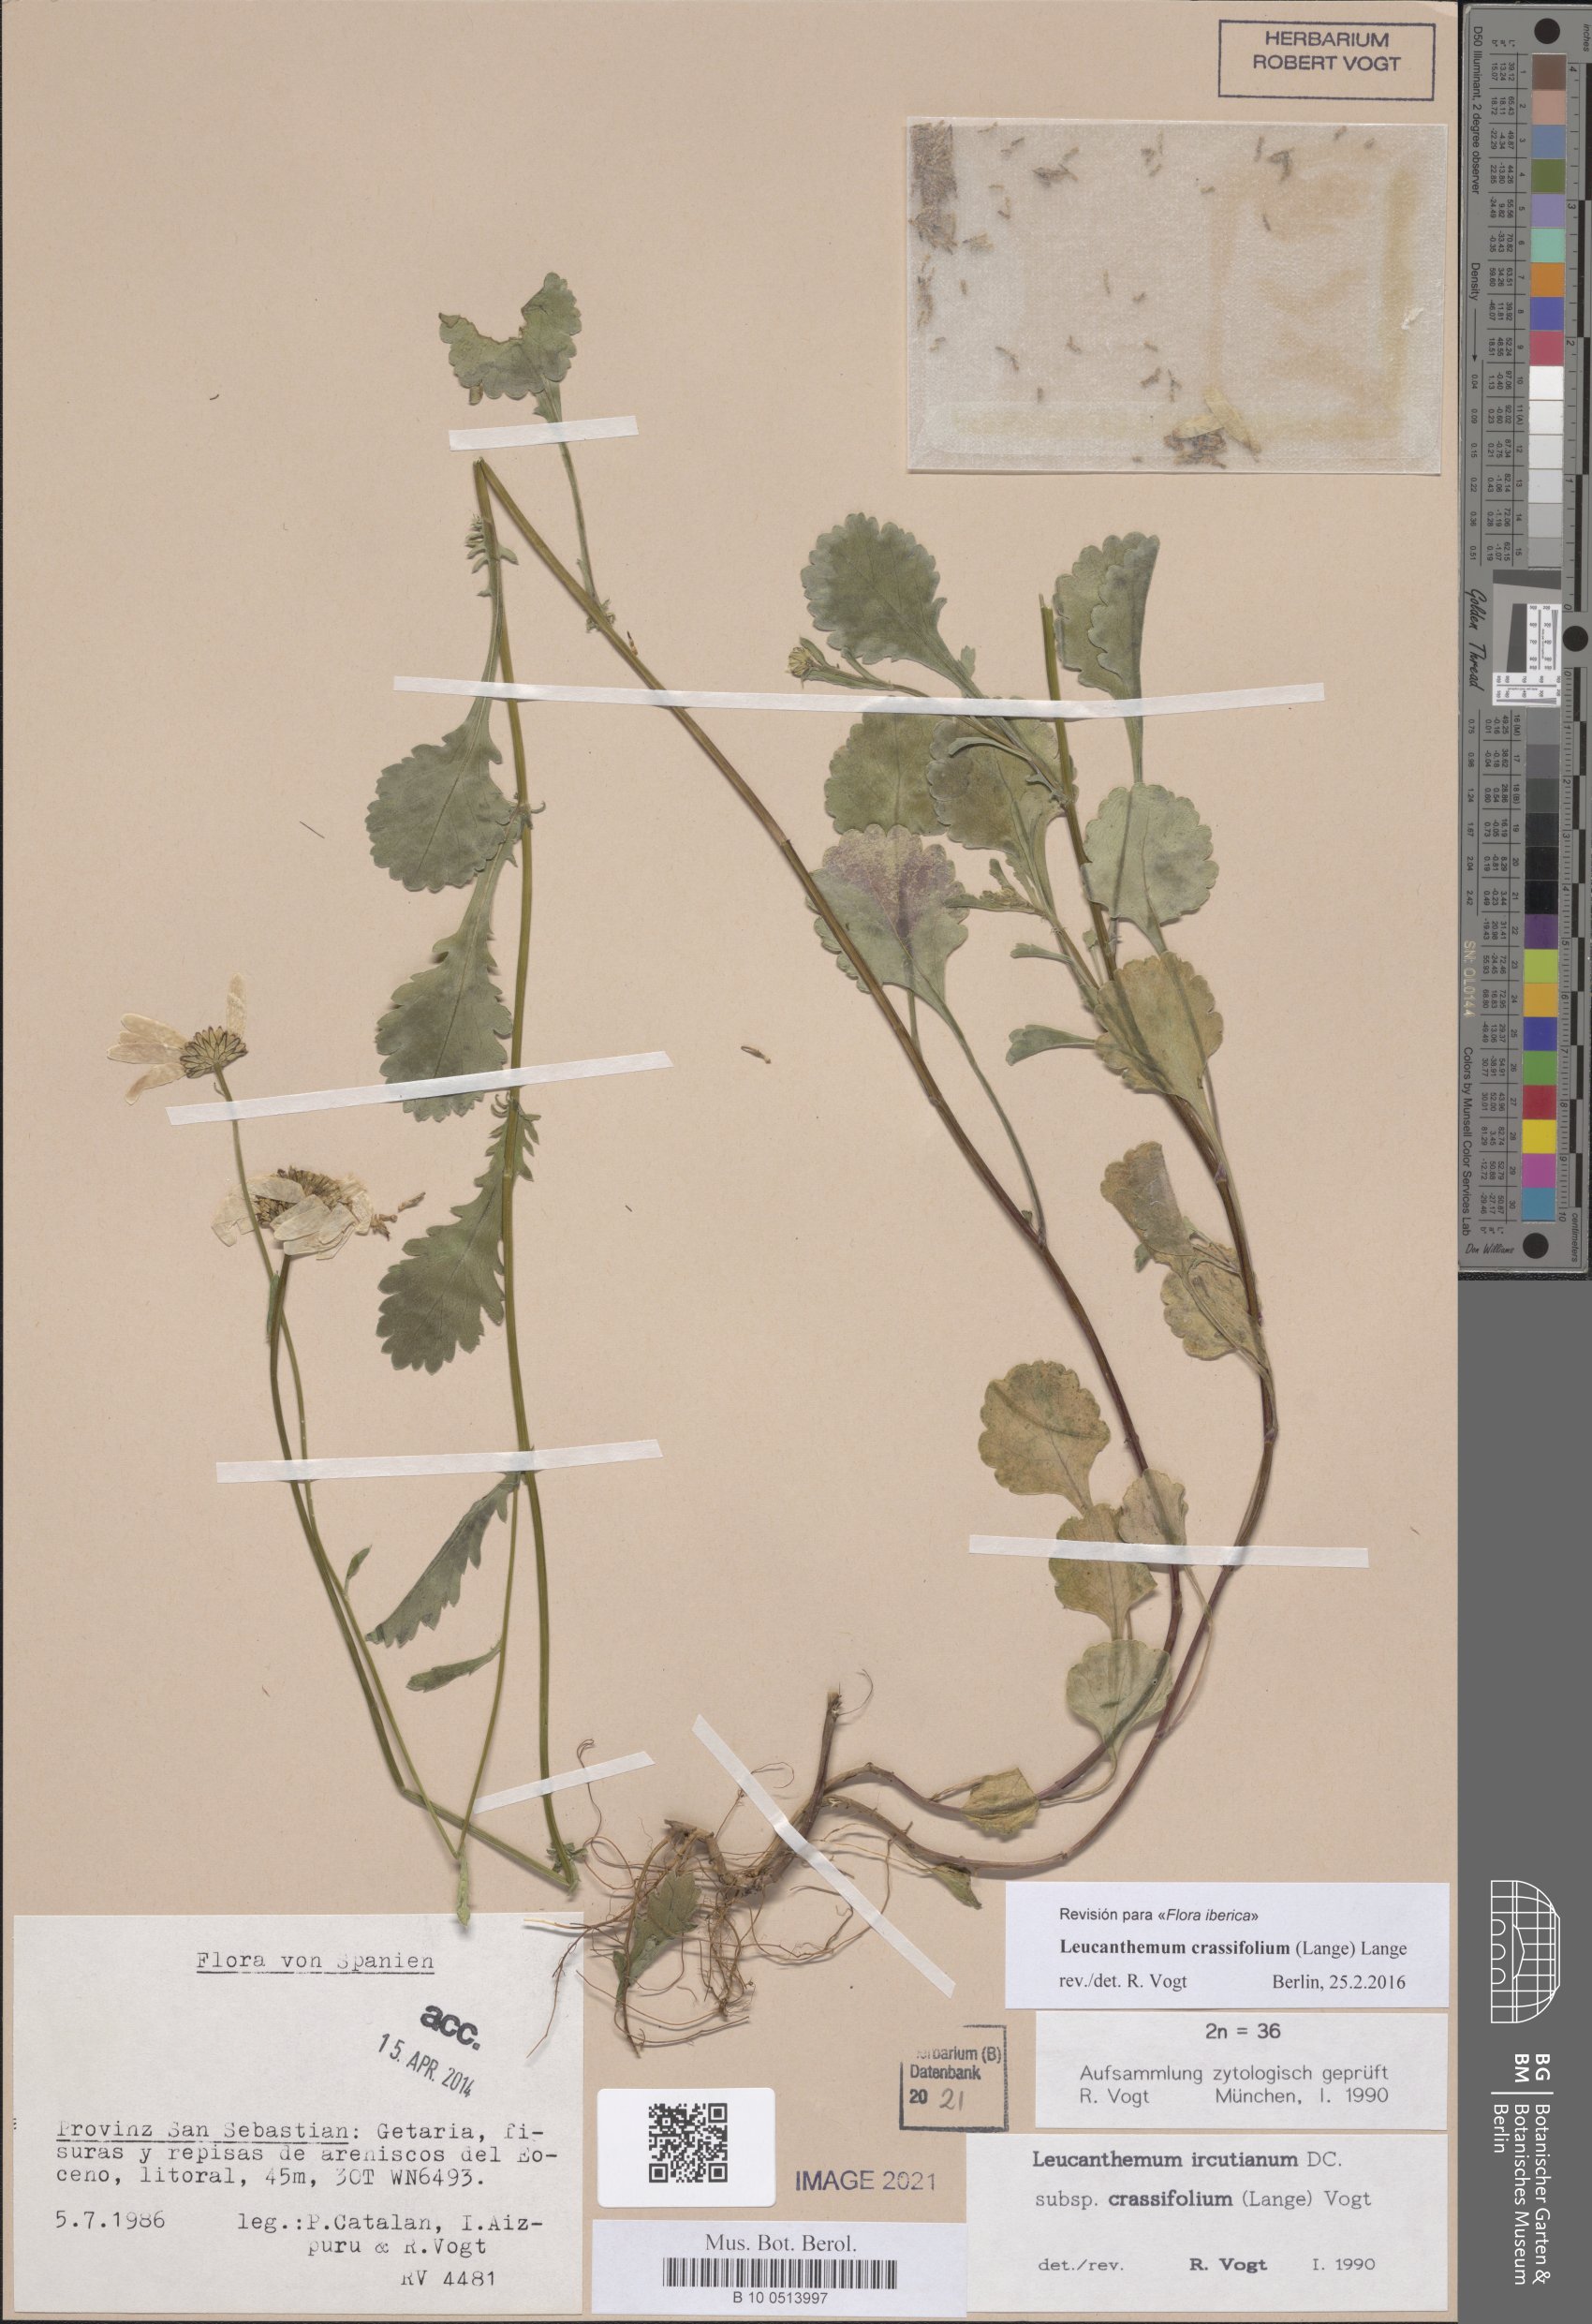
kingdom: Plantae
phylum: Tracheophyta
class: Magnoliopsida
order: Asterales
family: Asteraceae
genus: Leucanthemum
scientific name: Leucanthemum crassifolium
